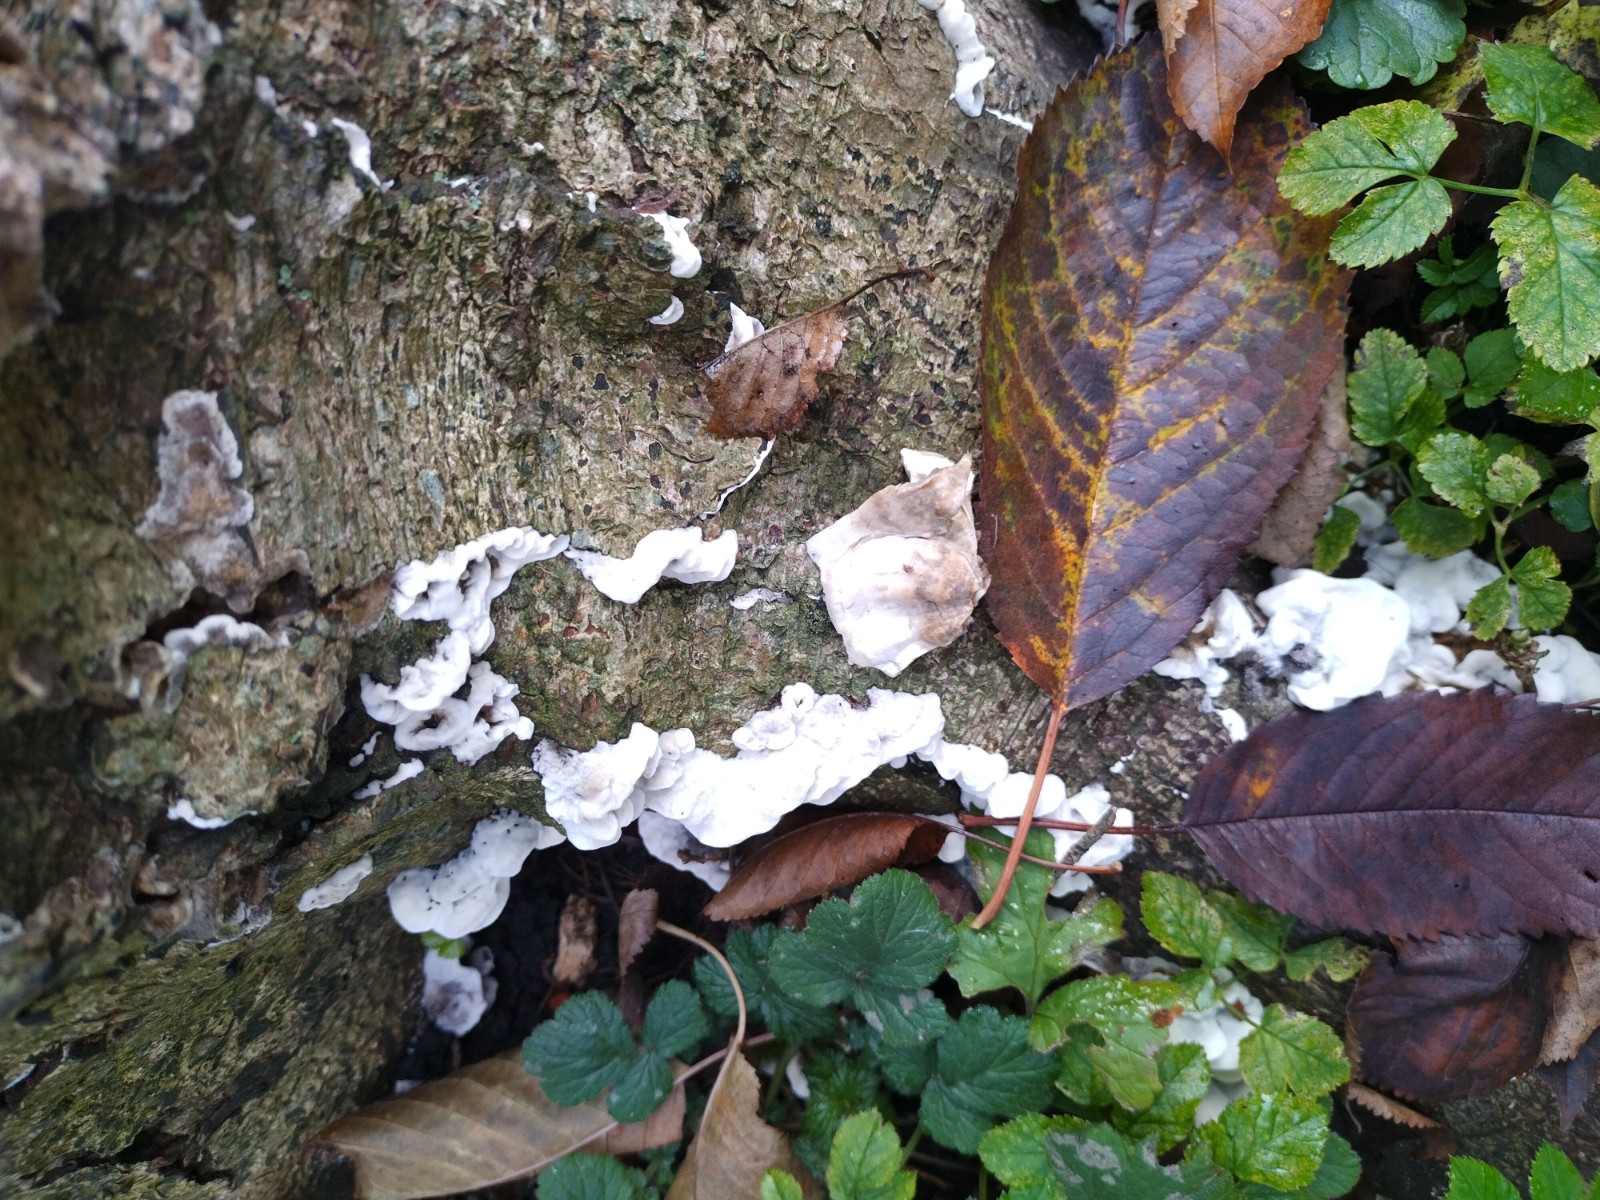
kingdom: Fungi
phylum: Basidiomycota
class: Agaricomycetes
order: Polyporales
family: Phanerochaetaceae
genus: Bjerkandera
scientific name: Bjerkandera adusta
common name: sveden sodporesvamp
